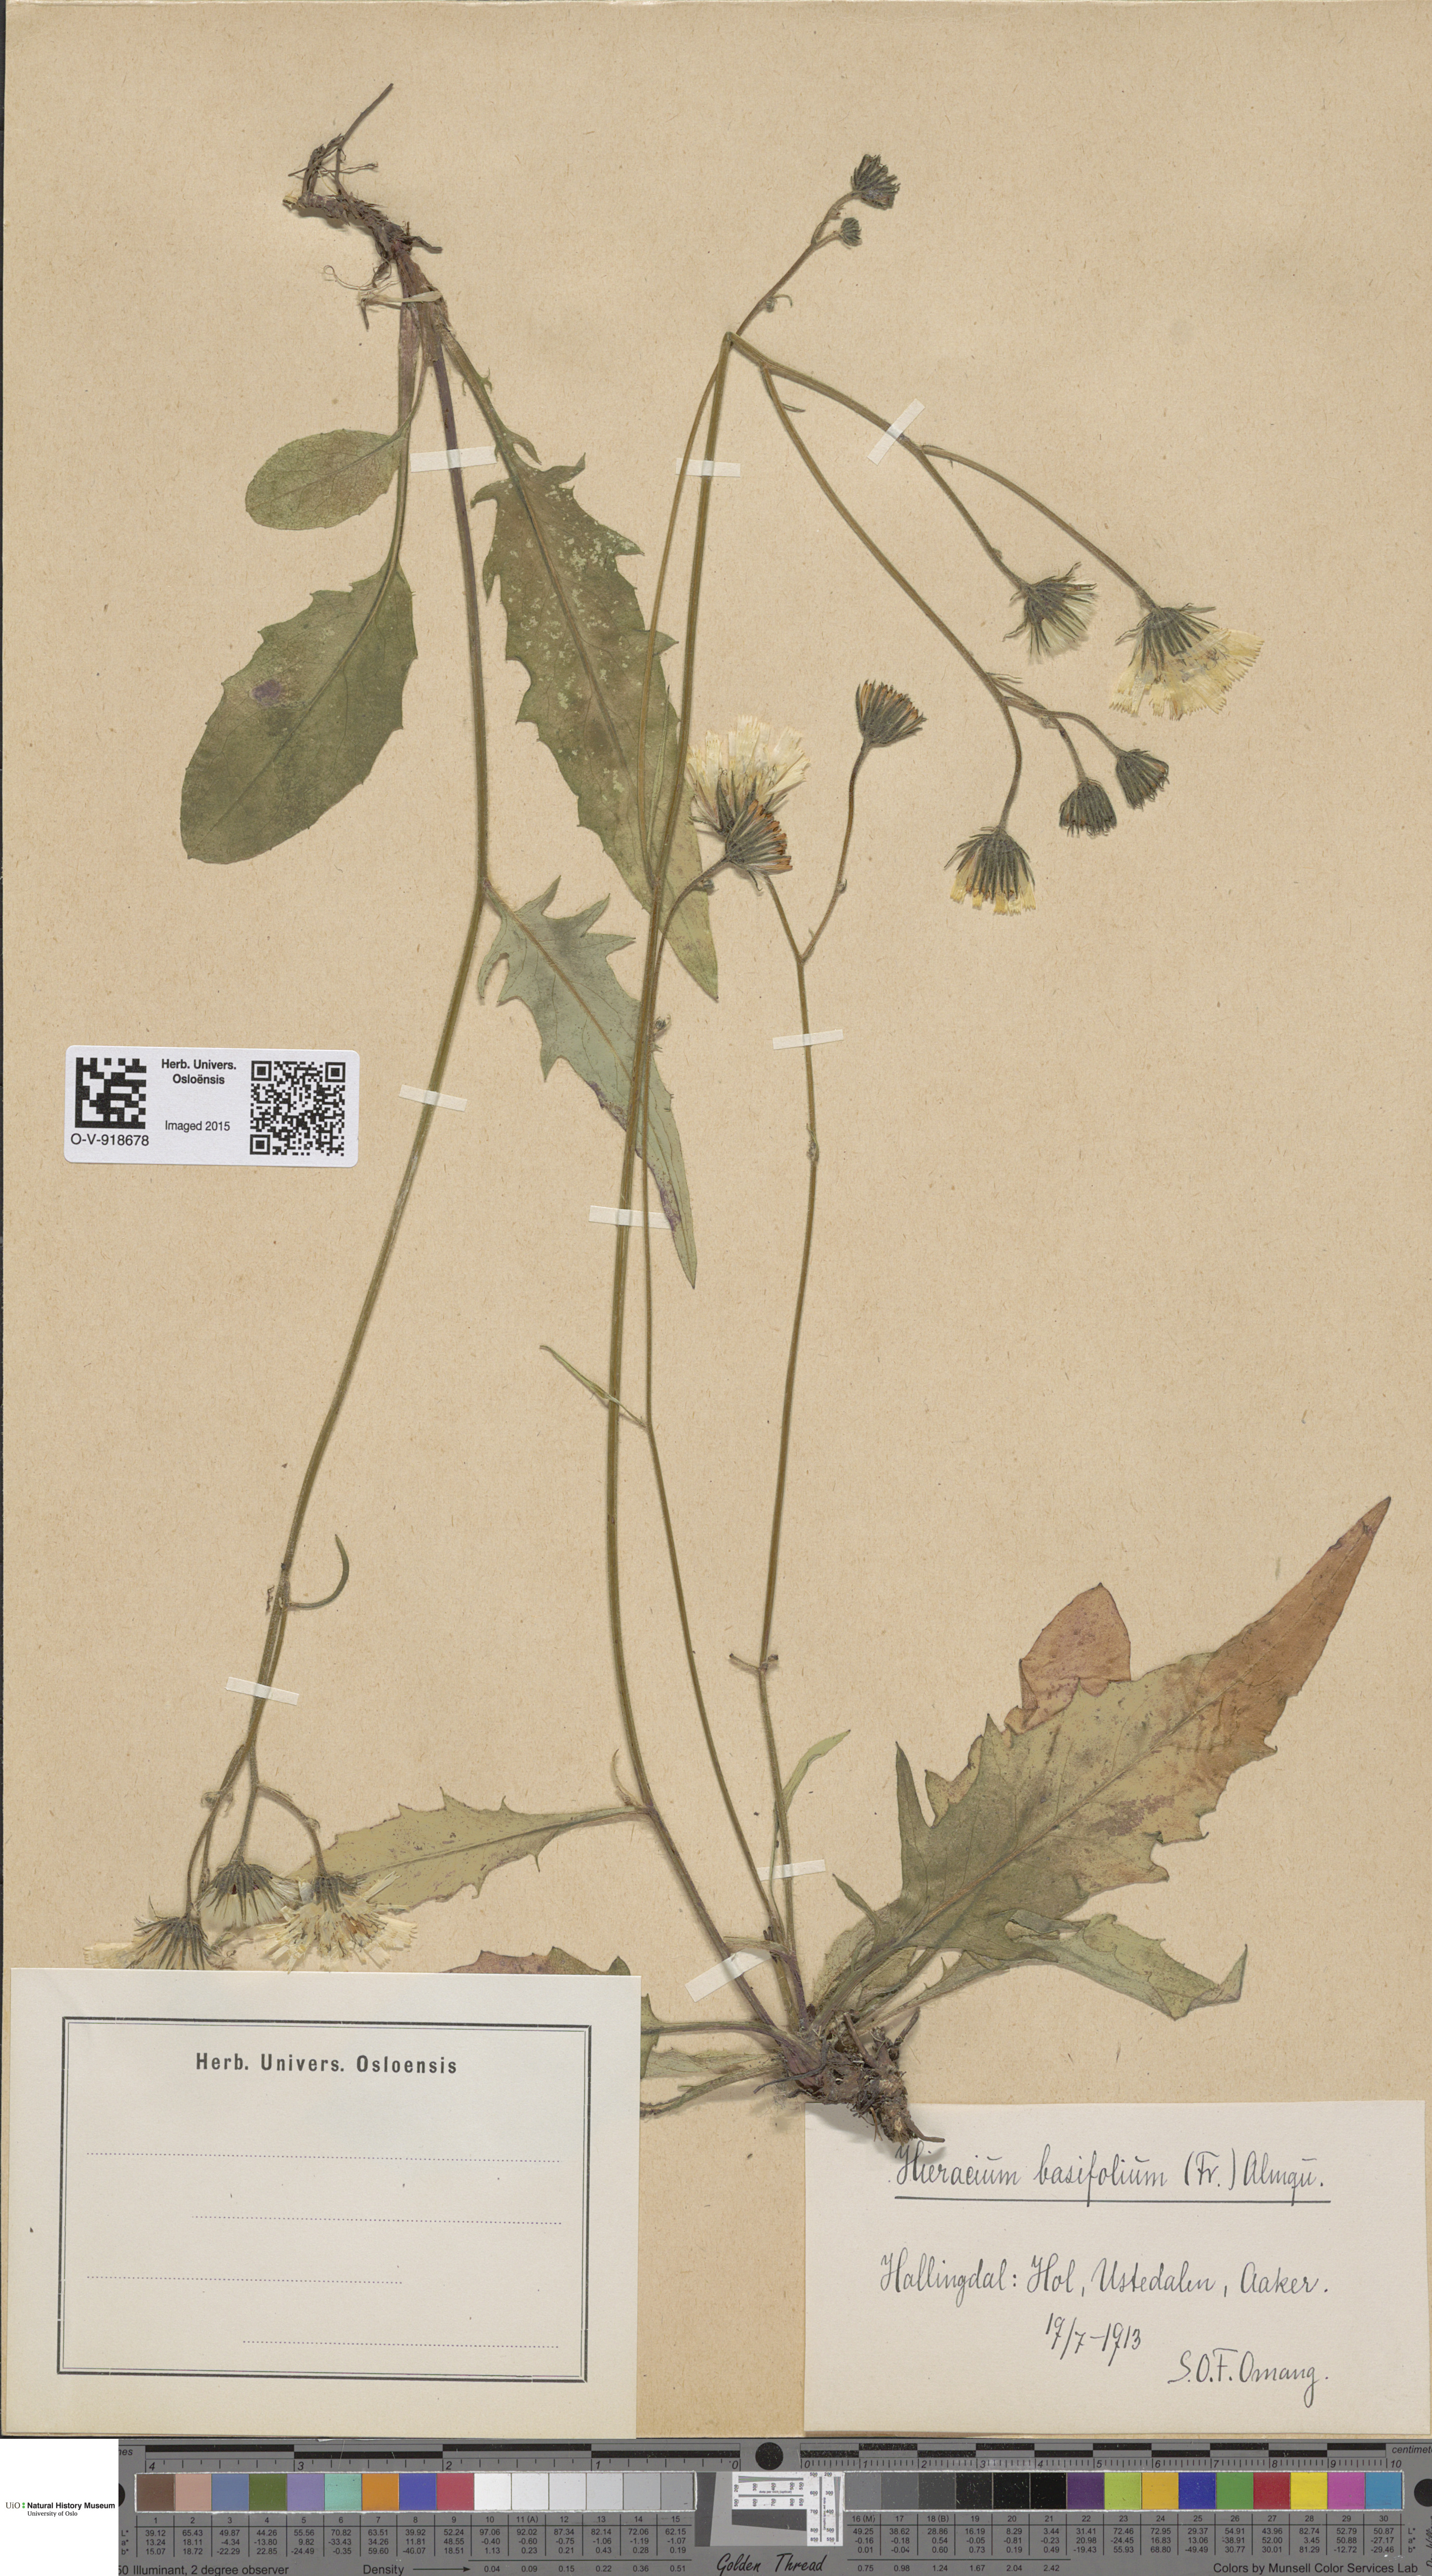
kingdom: Plantae
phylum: Tracheophyta
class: Magnoliopsida
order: Asterales
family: Asteraceae
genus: Hieracium
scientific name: Hieracium basifolium
